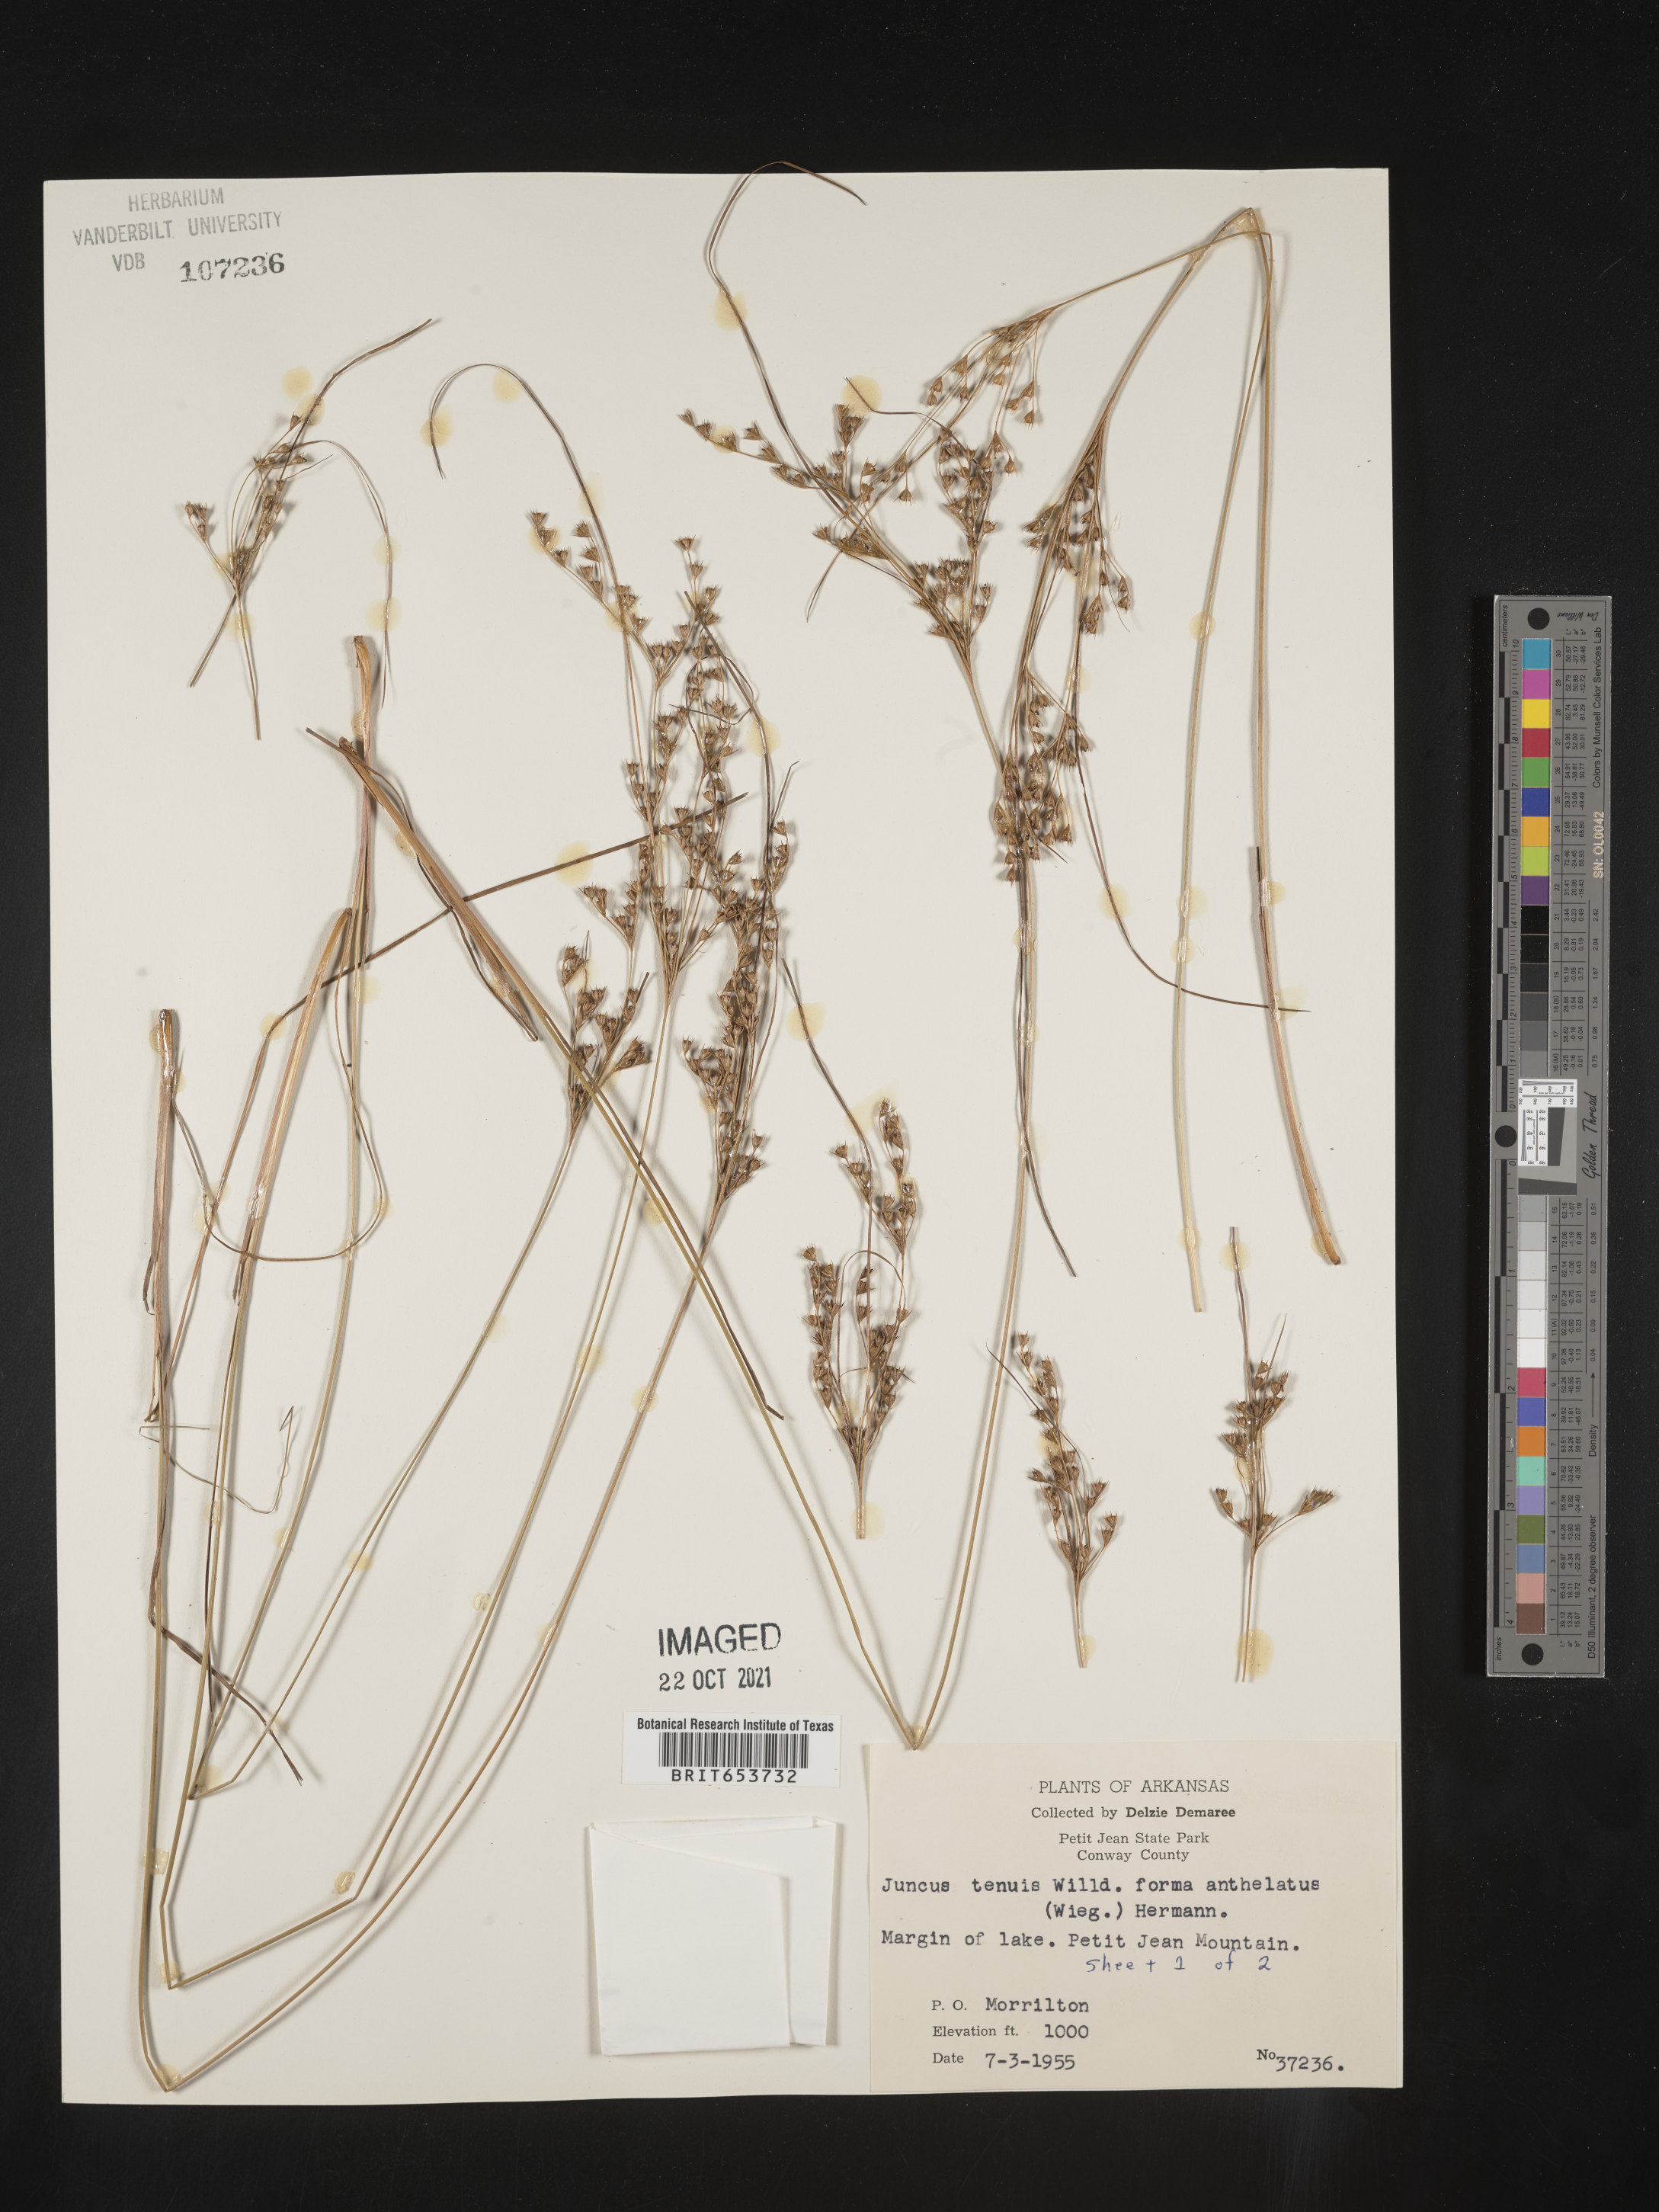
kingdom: Plantae
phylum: Tracheophyta
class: Liliopsida
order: Poales
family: Juncaceae
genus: Juncus
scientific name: Juncus tenuis
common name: Slender rush
